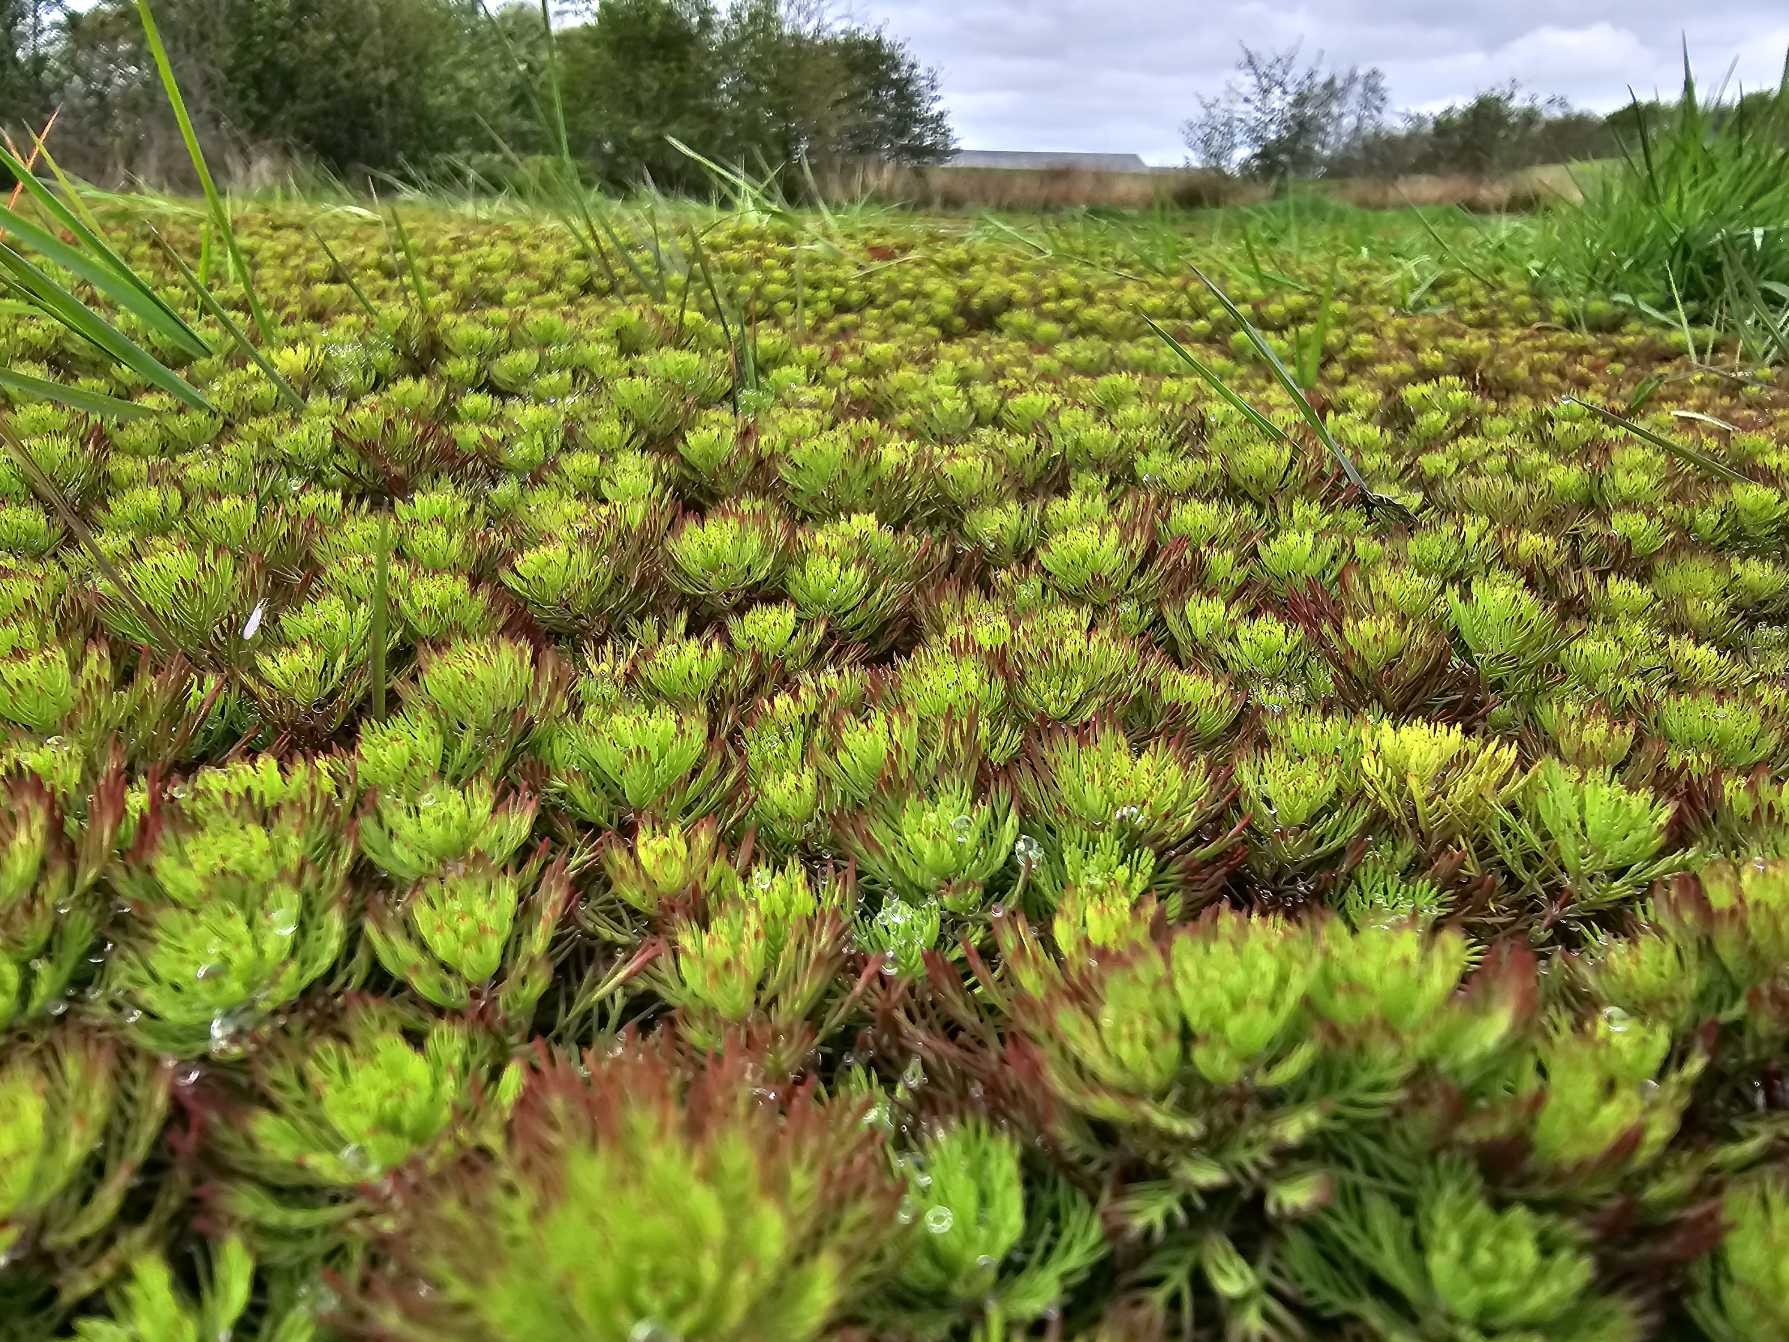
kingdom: Plantae
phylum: Tracheophyta
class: Magnoliopsida
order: Saxifragales
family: Haloragaceae
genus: Myriophyllum
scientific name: Myriophyllum rubricaule
